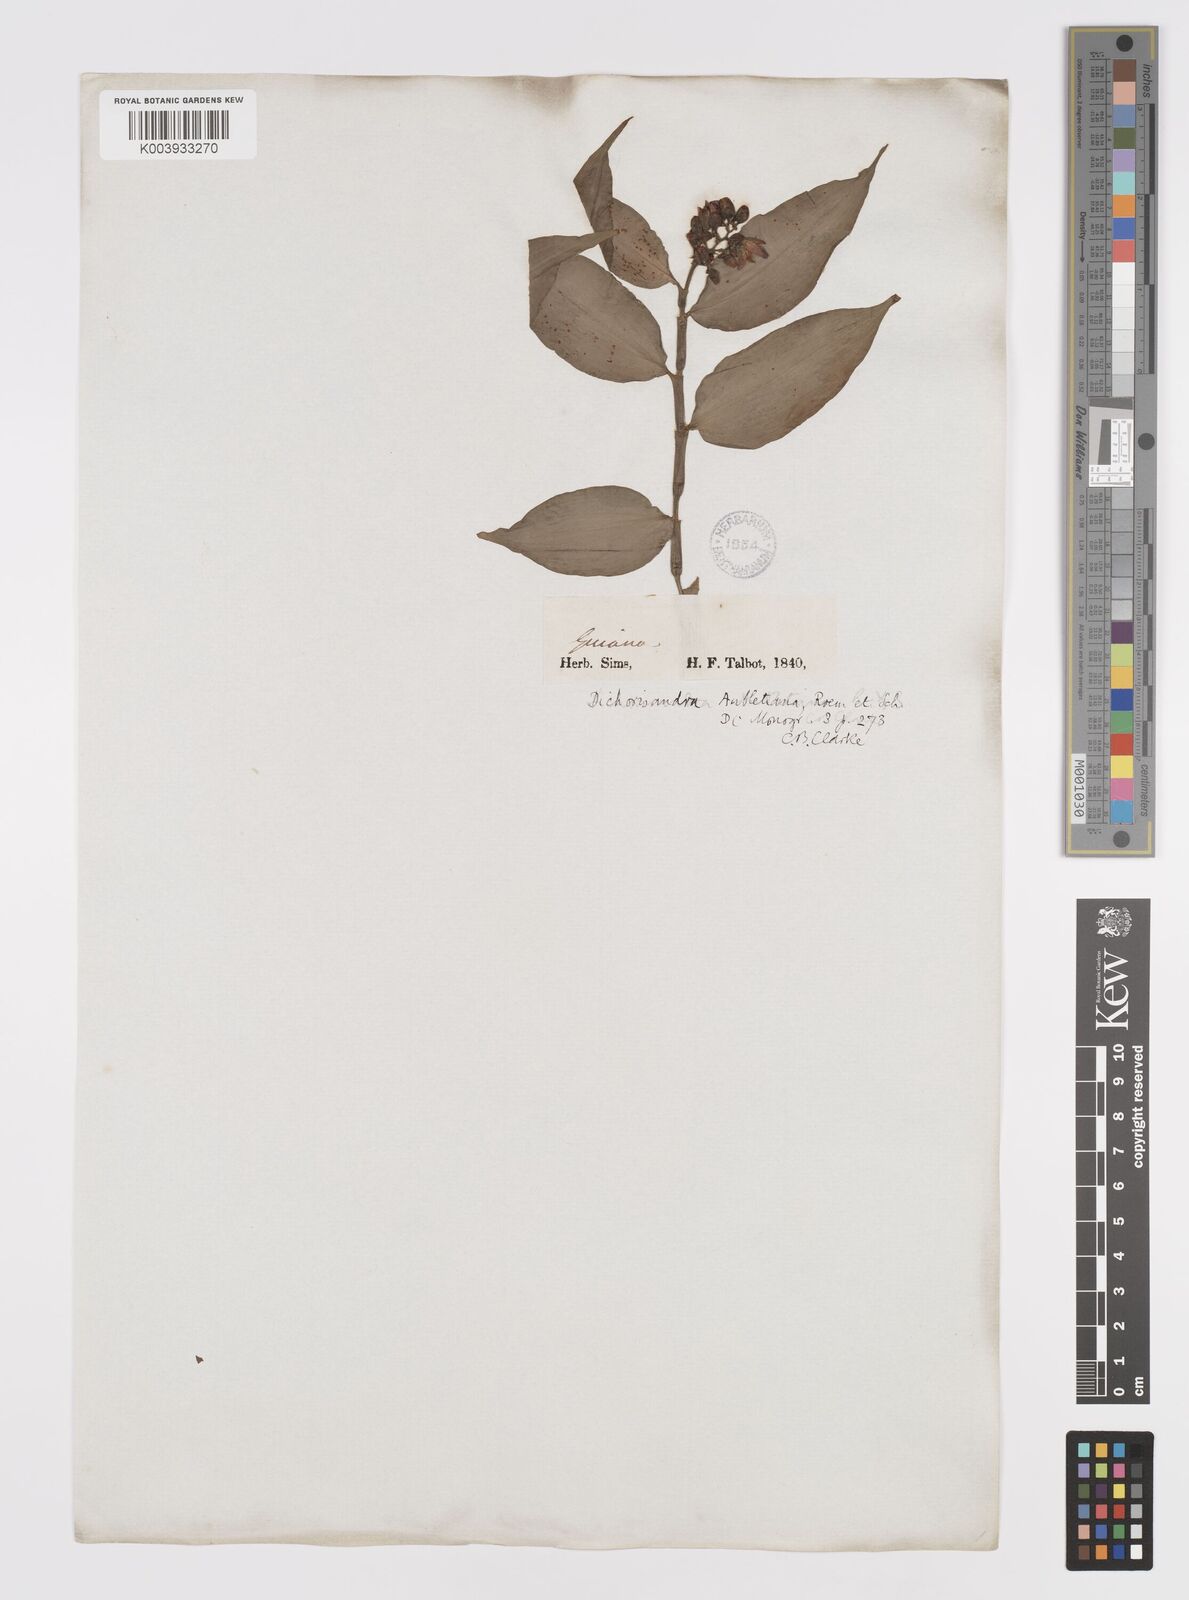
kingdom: Plantae
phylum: Tracheophyta
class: Liliopsida
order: Commelinales
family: Commelinaceae
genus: Dichorisandra
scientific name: Dichorisandra hexandra
